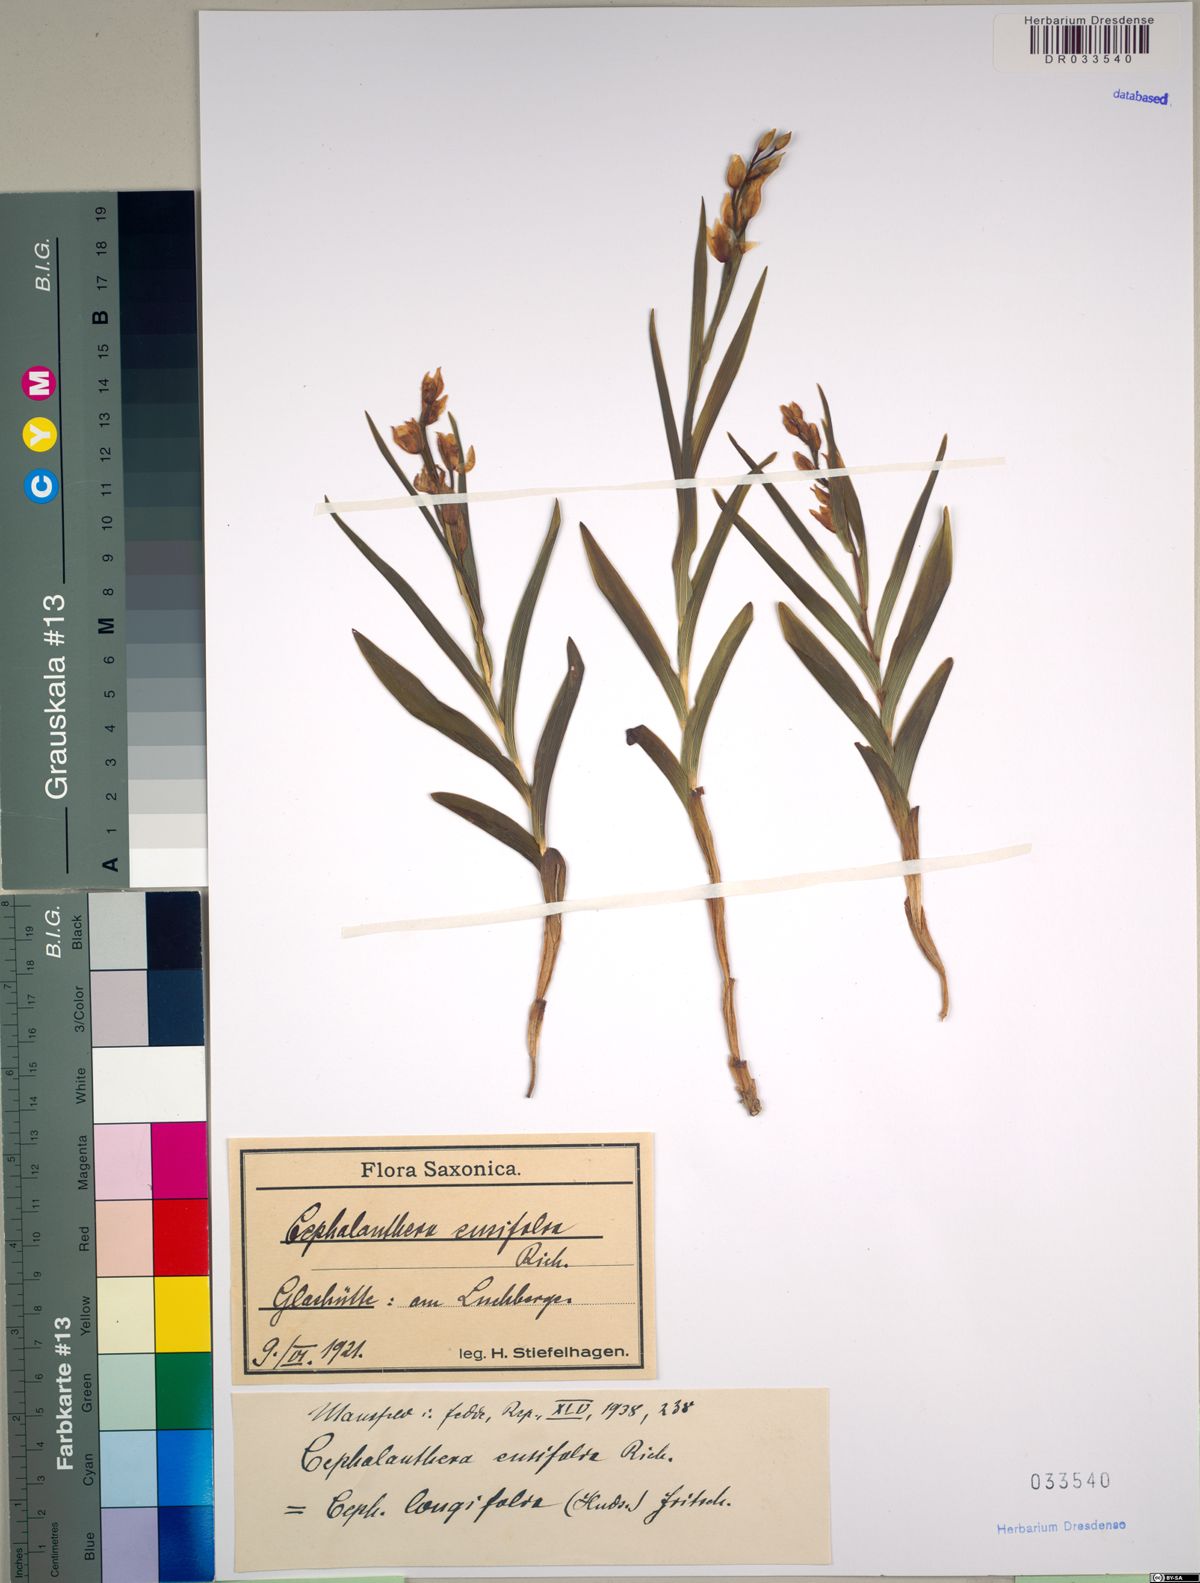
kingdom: Plantae
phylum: Tracheophyta
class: Liliopsida
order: Asparagales
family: Orchidaceae
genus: Cephalanthera
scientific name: Cephalanthera longifolia
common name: Narrow-leaved helleborine
